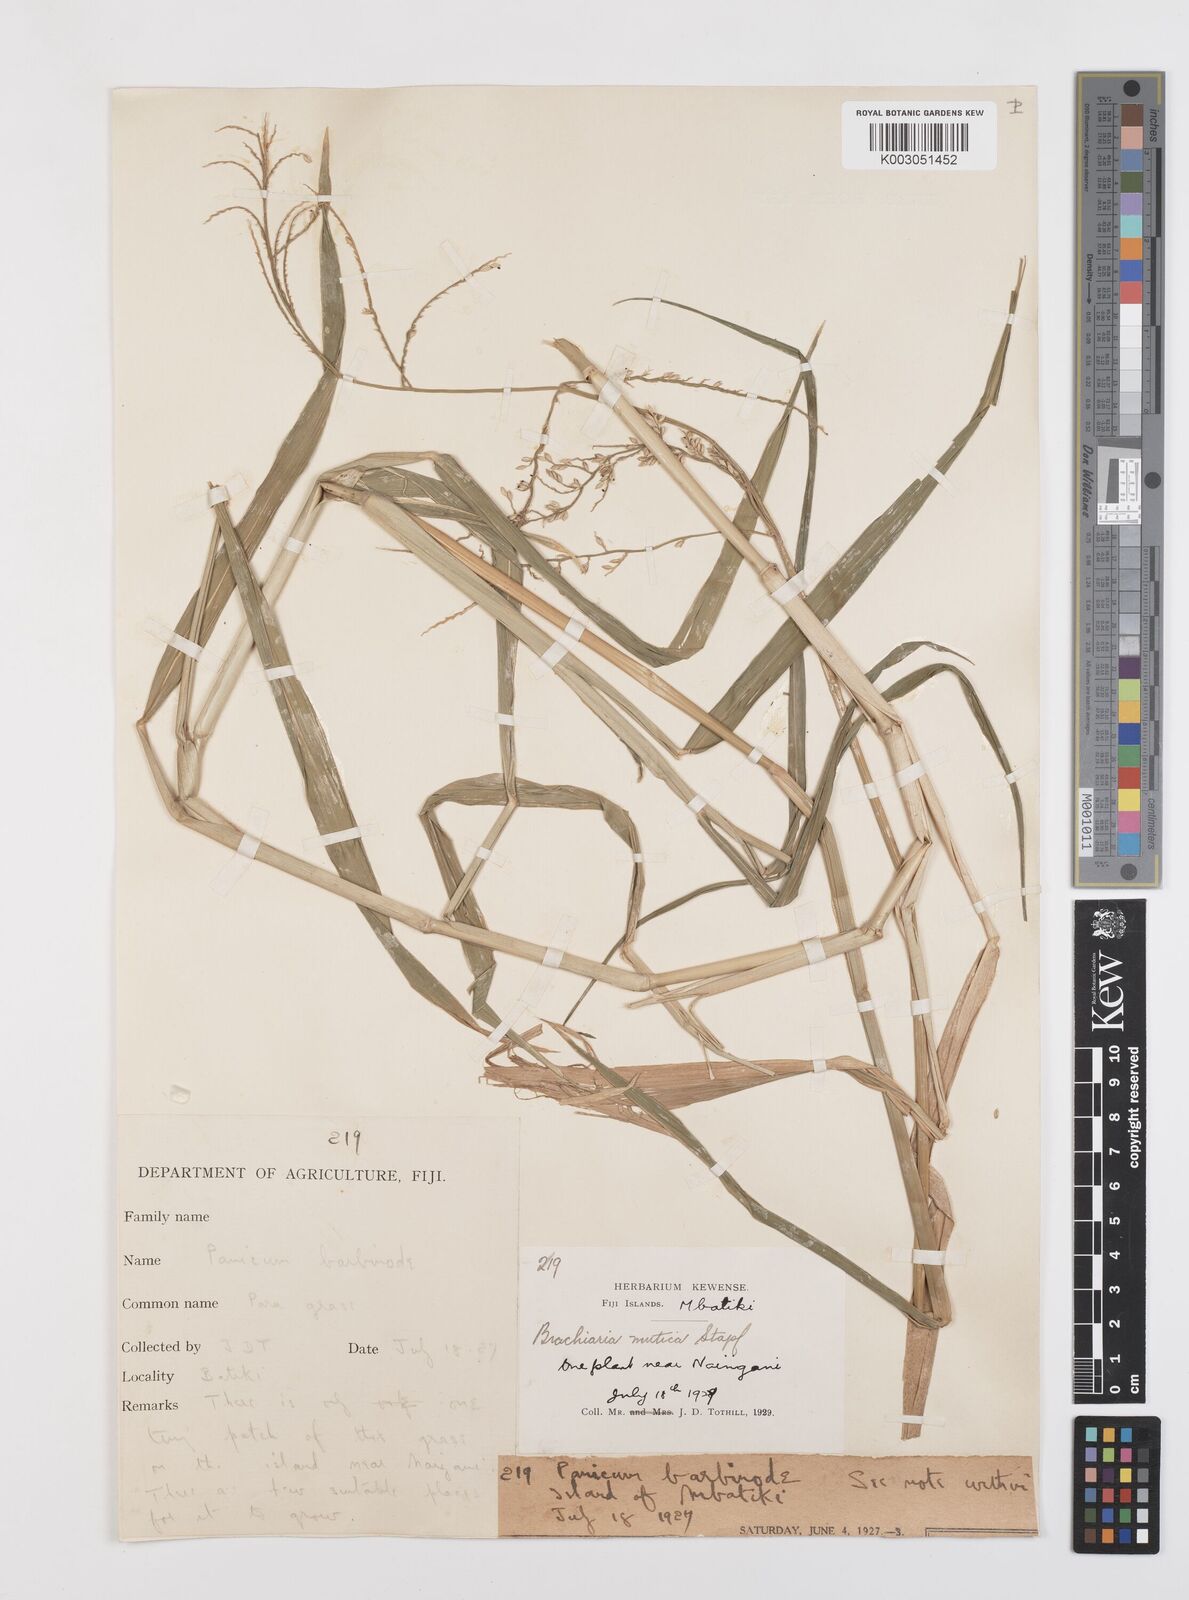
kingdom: Plantae
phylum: Tracheophyta
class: Liliopsida
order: Poales
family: Poaceae
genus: Urochloa
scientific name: Urochloa mutica
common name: Para grass
